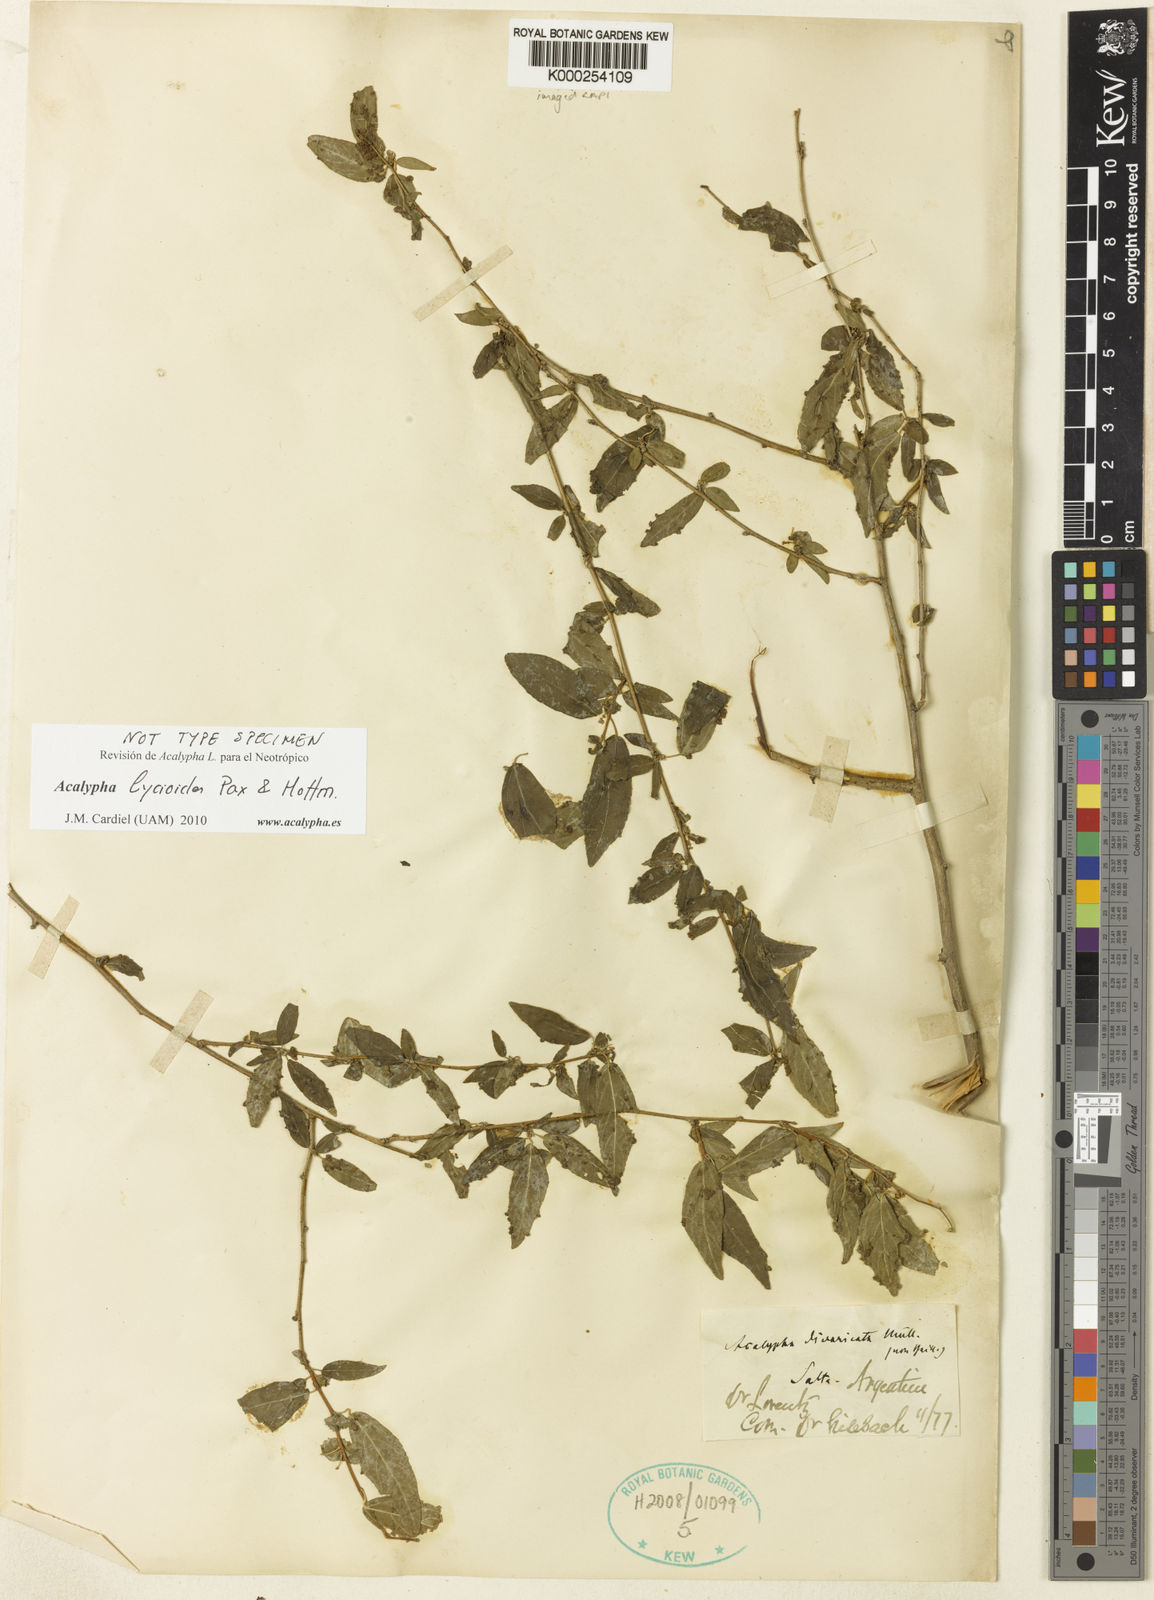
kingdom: Plantae
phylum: Tracheophyta
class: Magnoliopsida
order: Malpighiales
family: Euphorbiaceae
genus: Acalypha
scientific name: Acalypha lycioides
